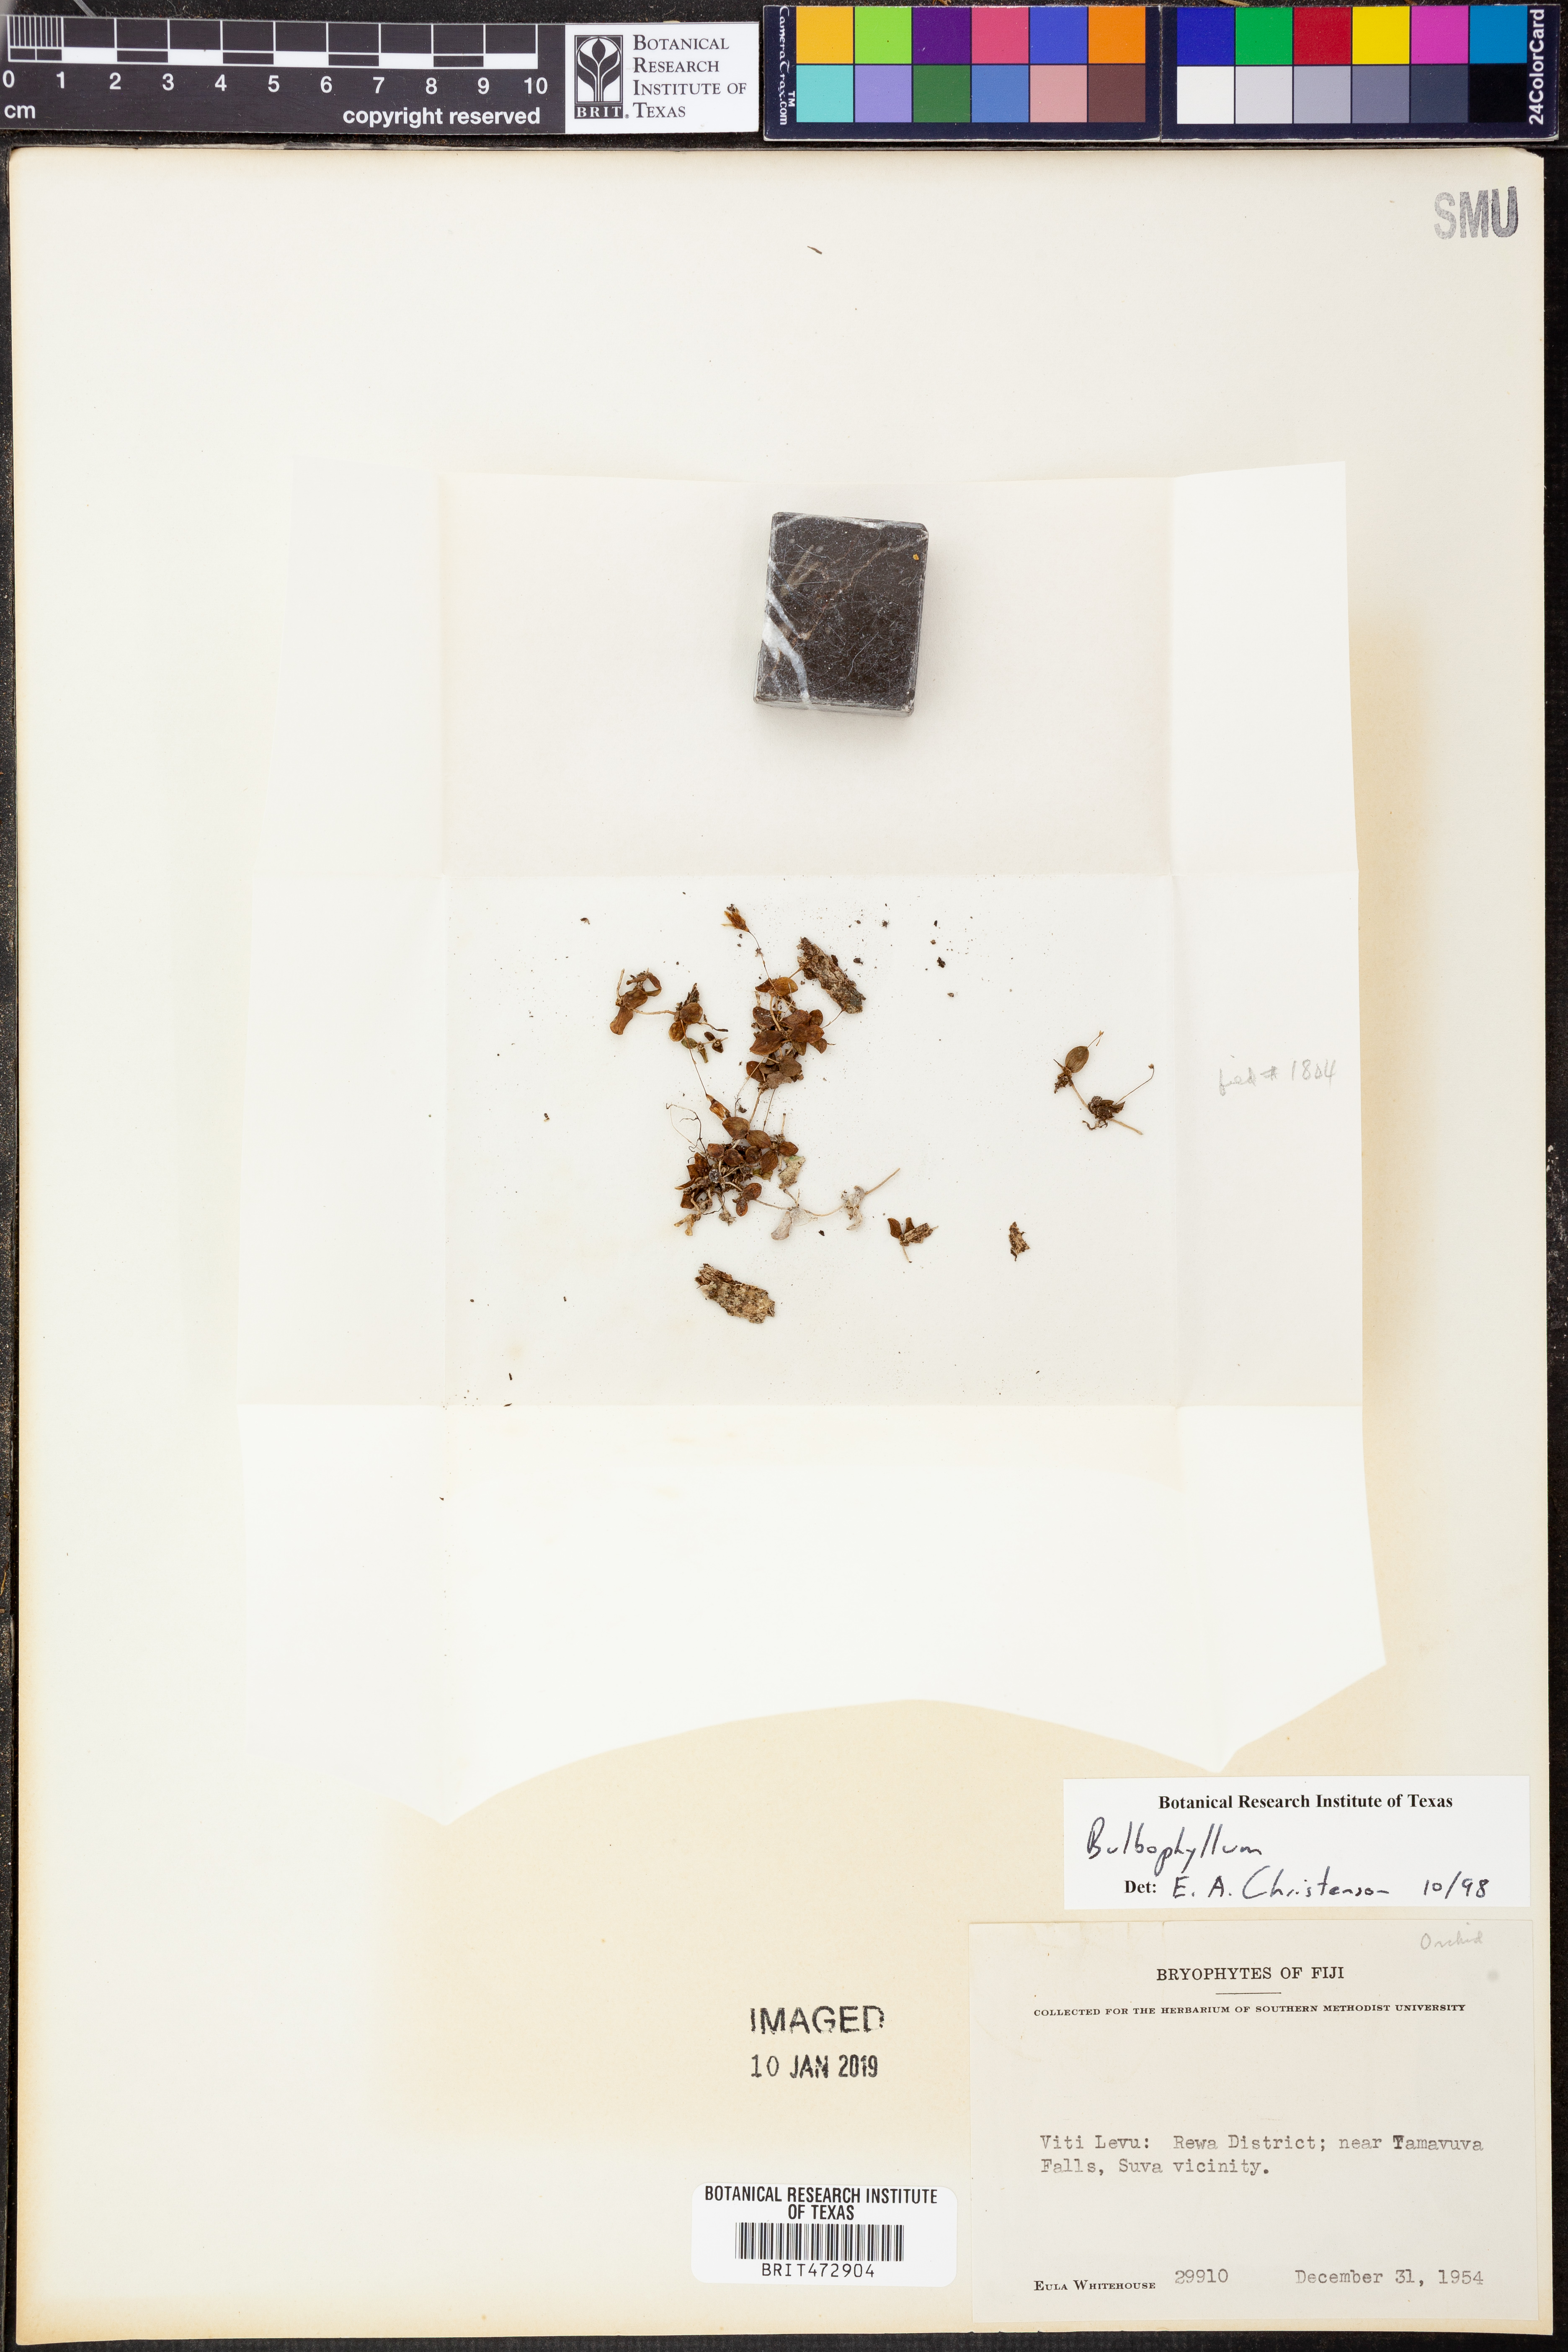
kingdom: Plantae
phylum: Tracheophyta
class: Liliopsida
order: Asparagales
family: Orchidaceae
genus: Bulbophyllum
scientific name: Bulbophyllum
